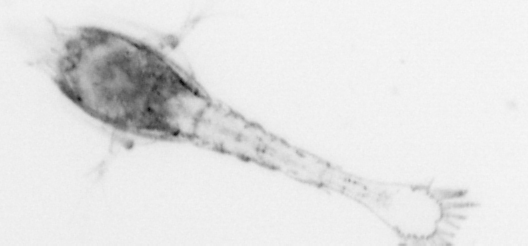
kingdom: Animalia
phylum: Arthropoda
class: Malacostraca
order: Decapoda
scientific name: Decapoda
